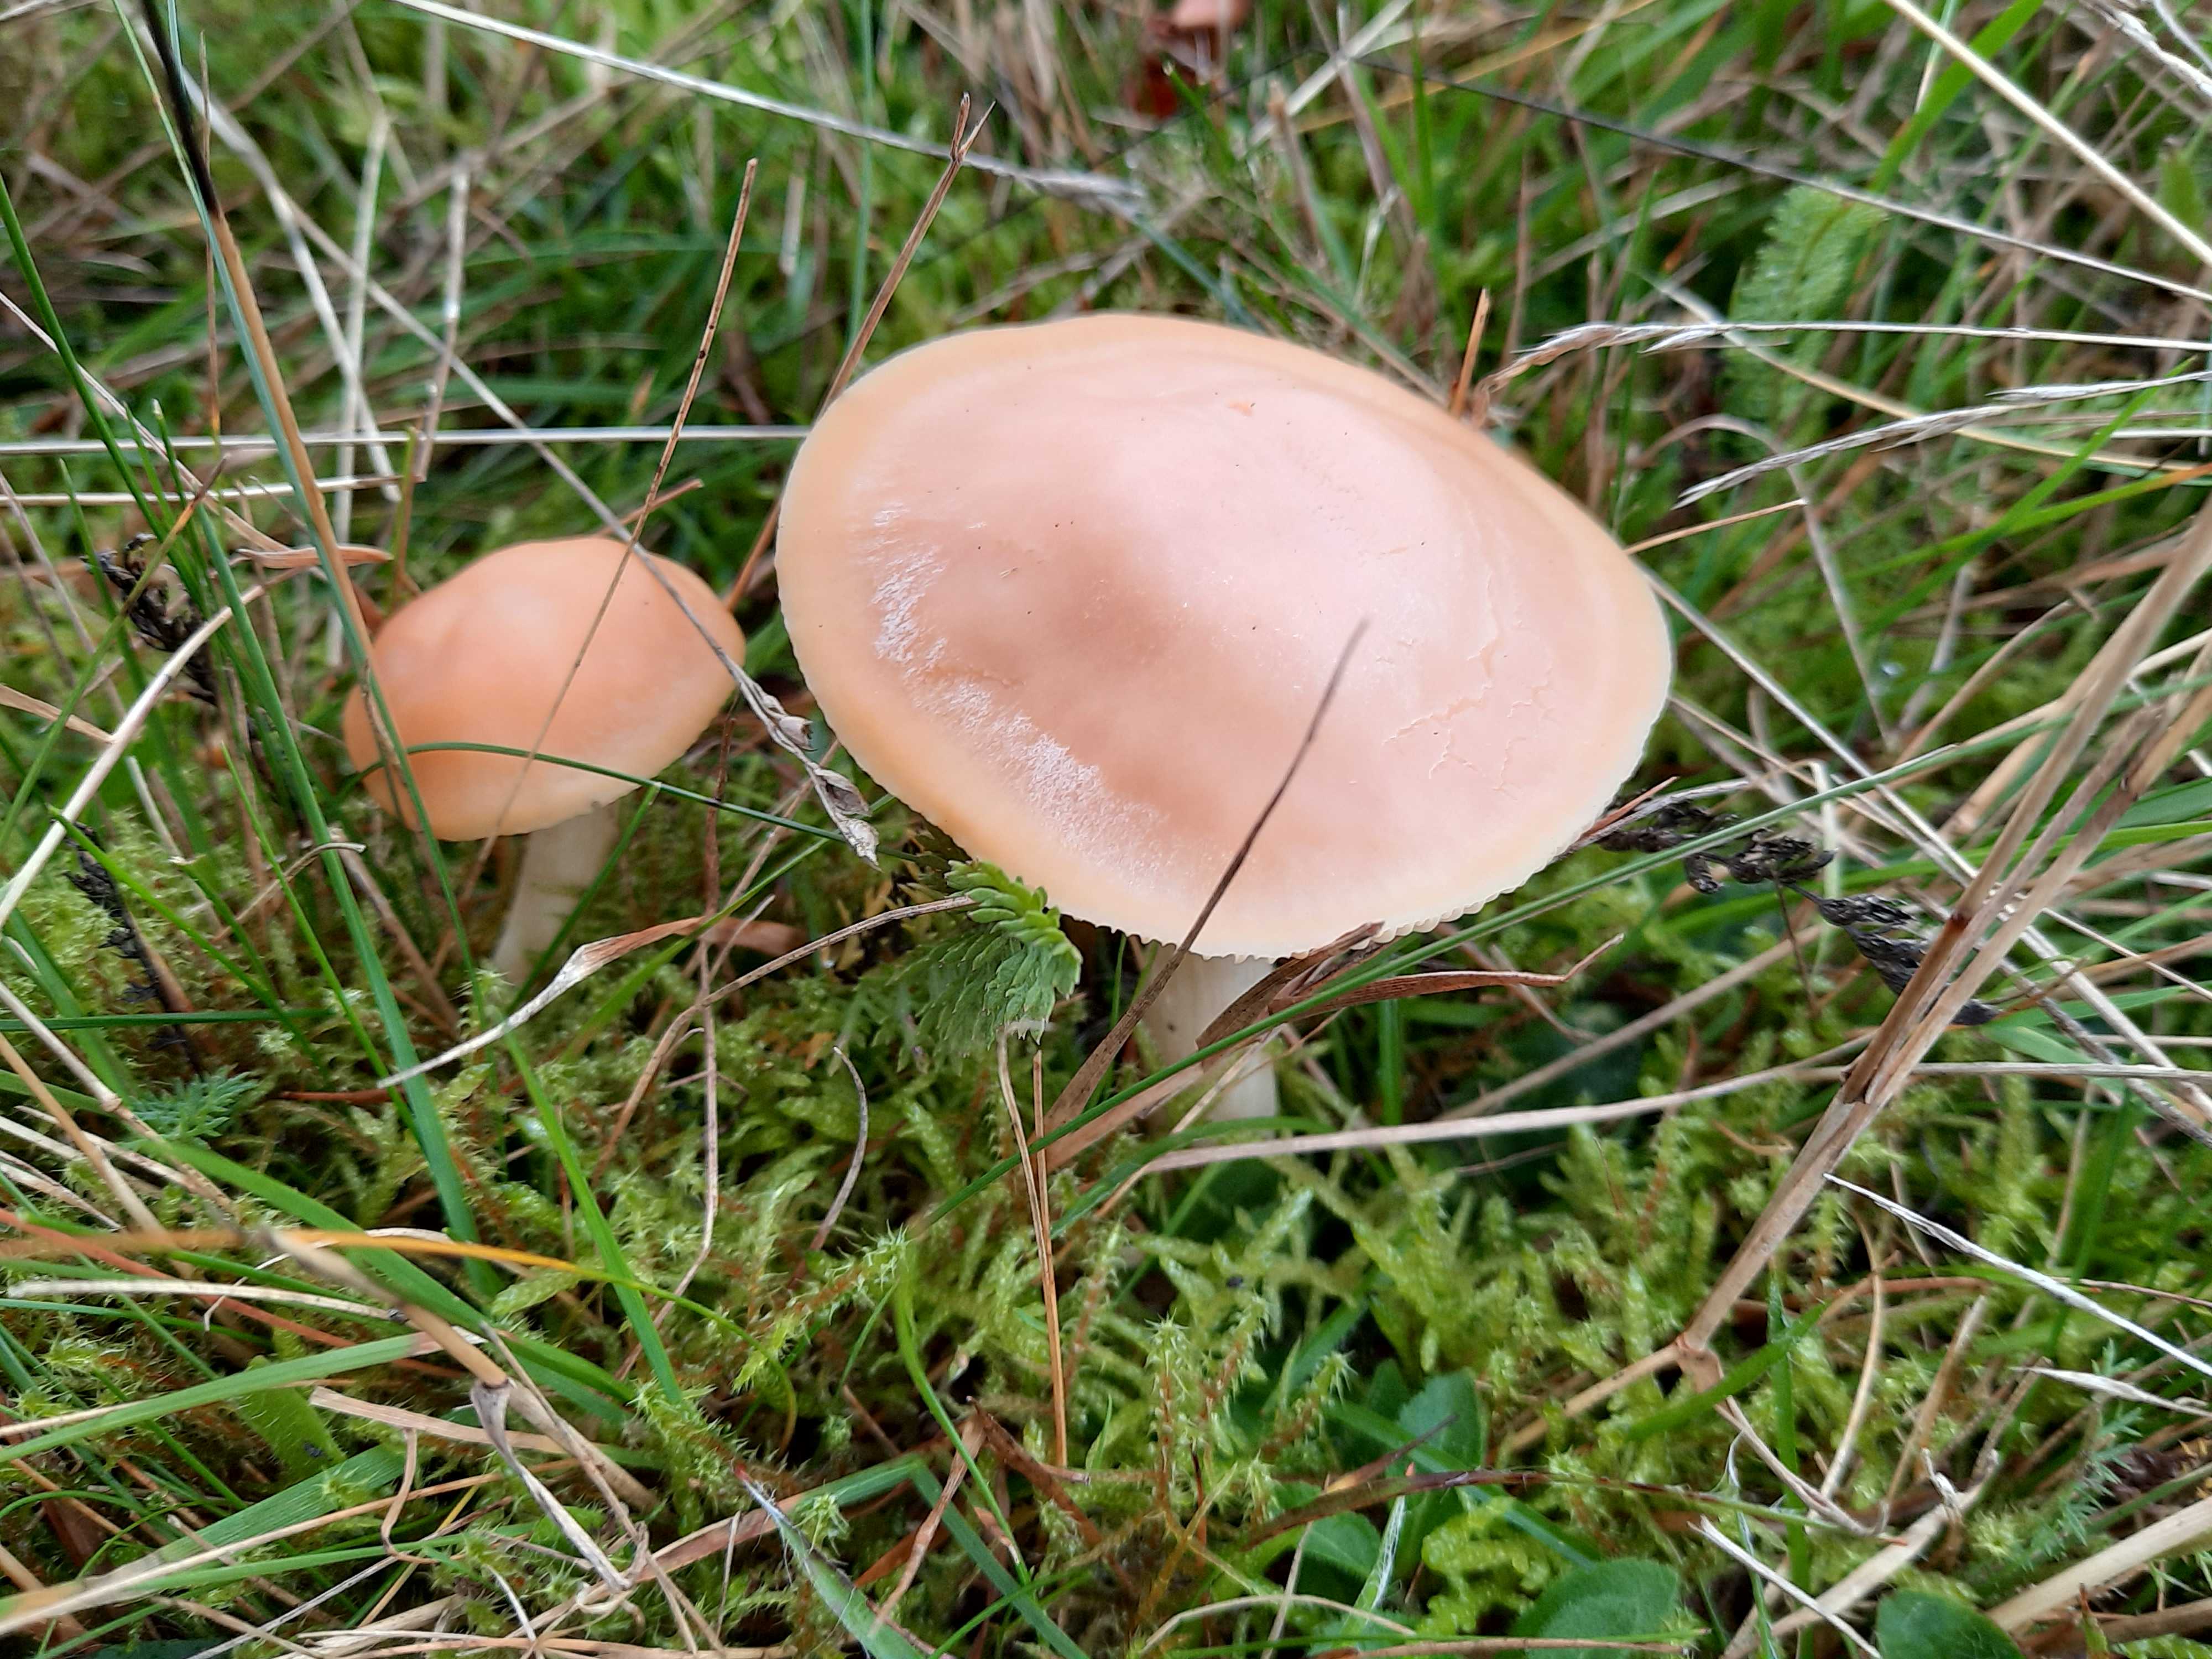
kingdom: Fungi
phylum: Basidiomycota
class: Agaricomycetes
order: Agaricales
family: Hygrophoraceae
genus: Cuphophyllus
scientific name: Cuphophyllus pratensis
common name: eng-vokshat
